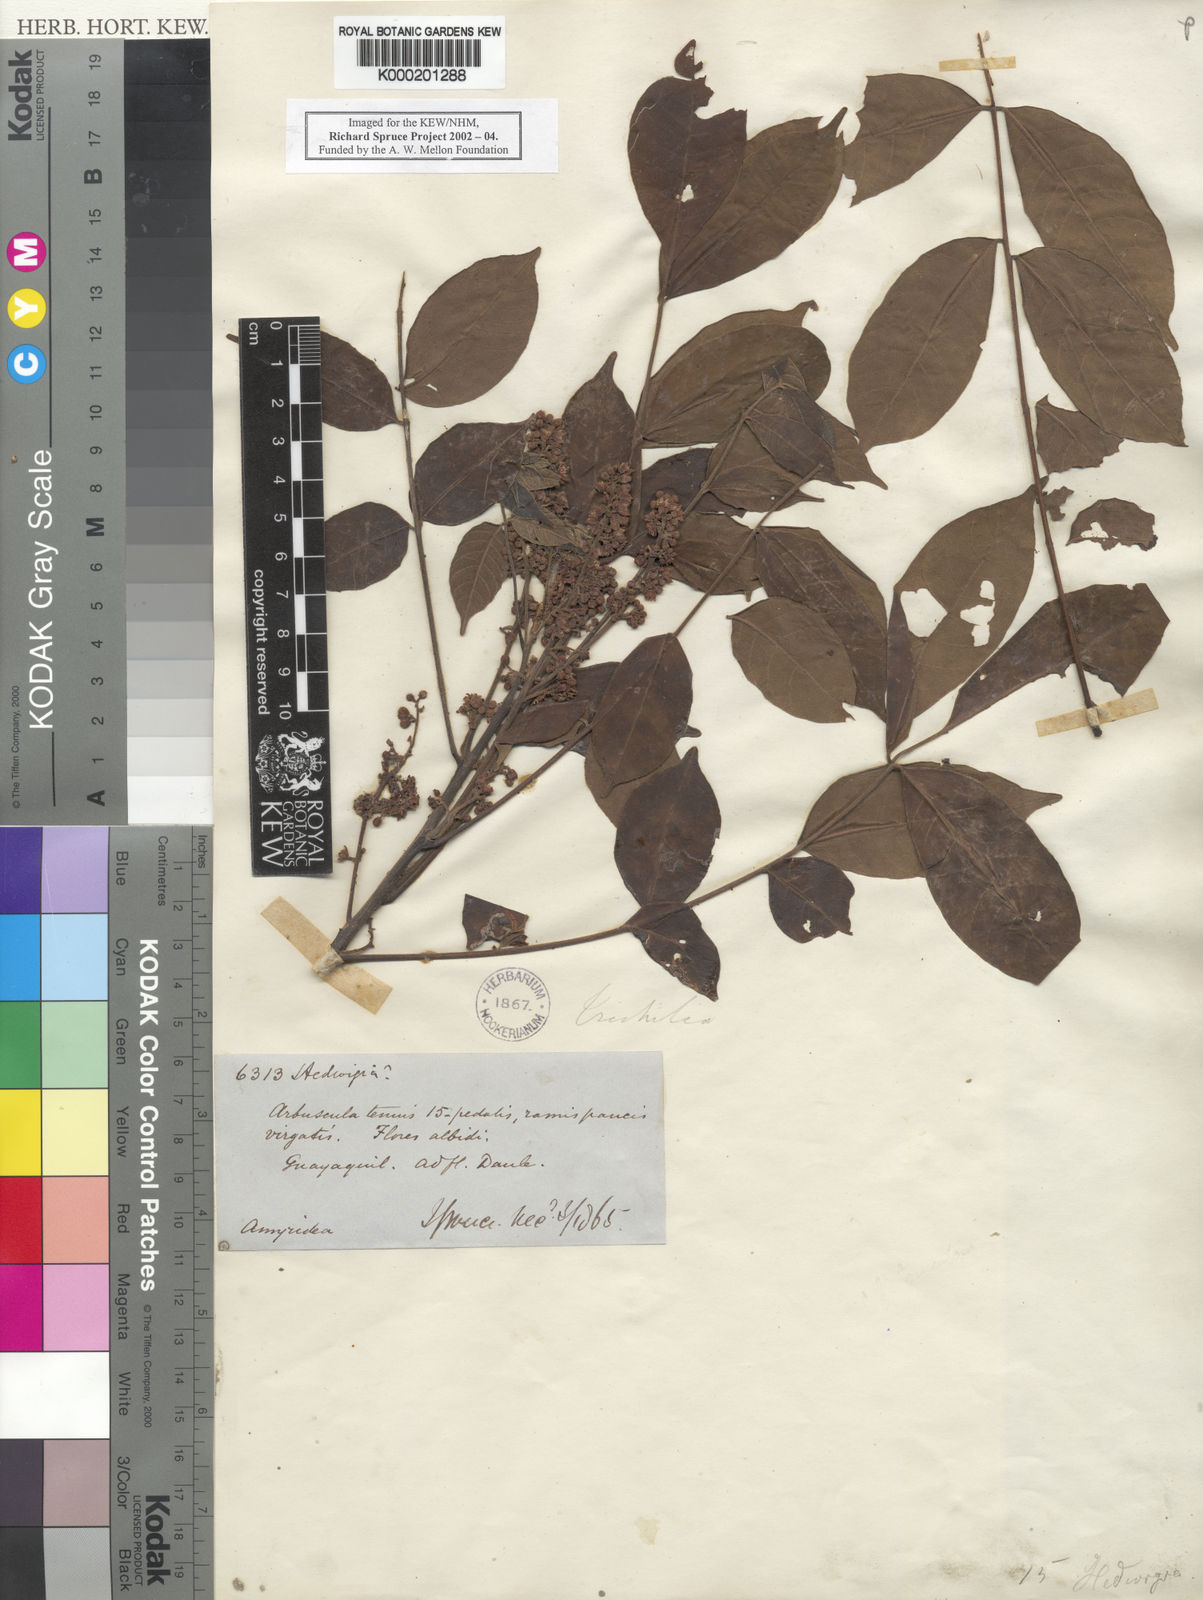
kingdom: Plantae
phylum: Tracheophyta
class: Magnoliopsida
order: Sapindales
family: Meliaceae
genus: Trichilia
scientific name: Trichilia hirta
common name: Red-cedar
